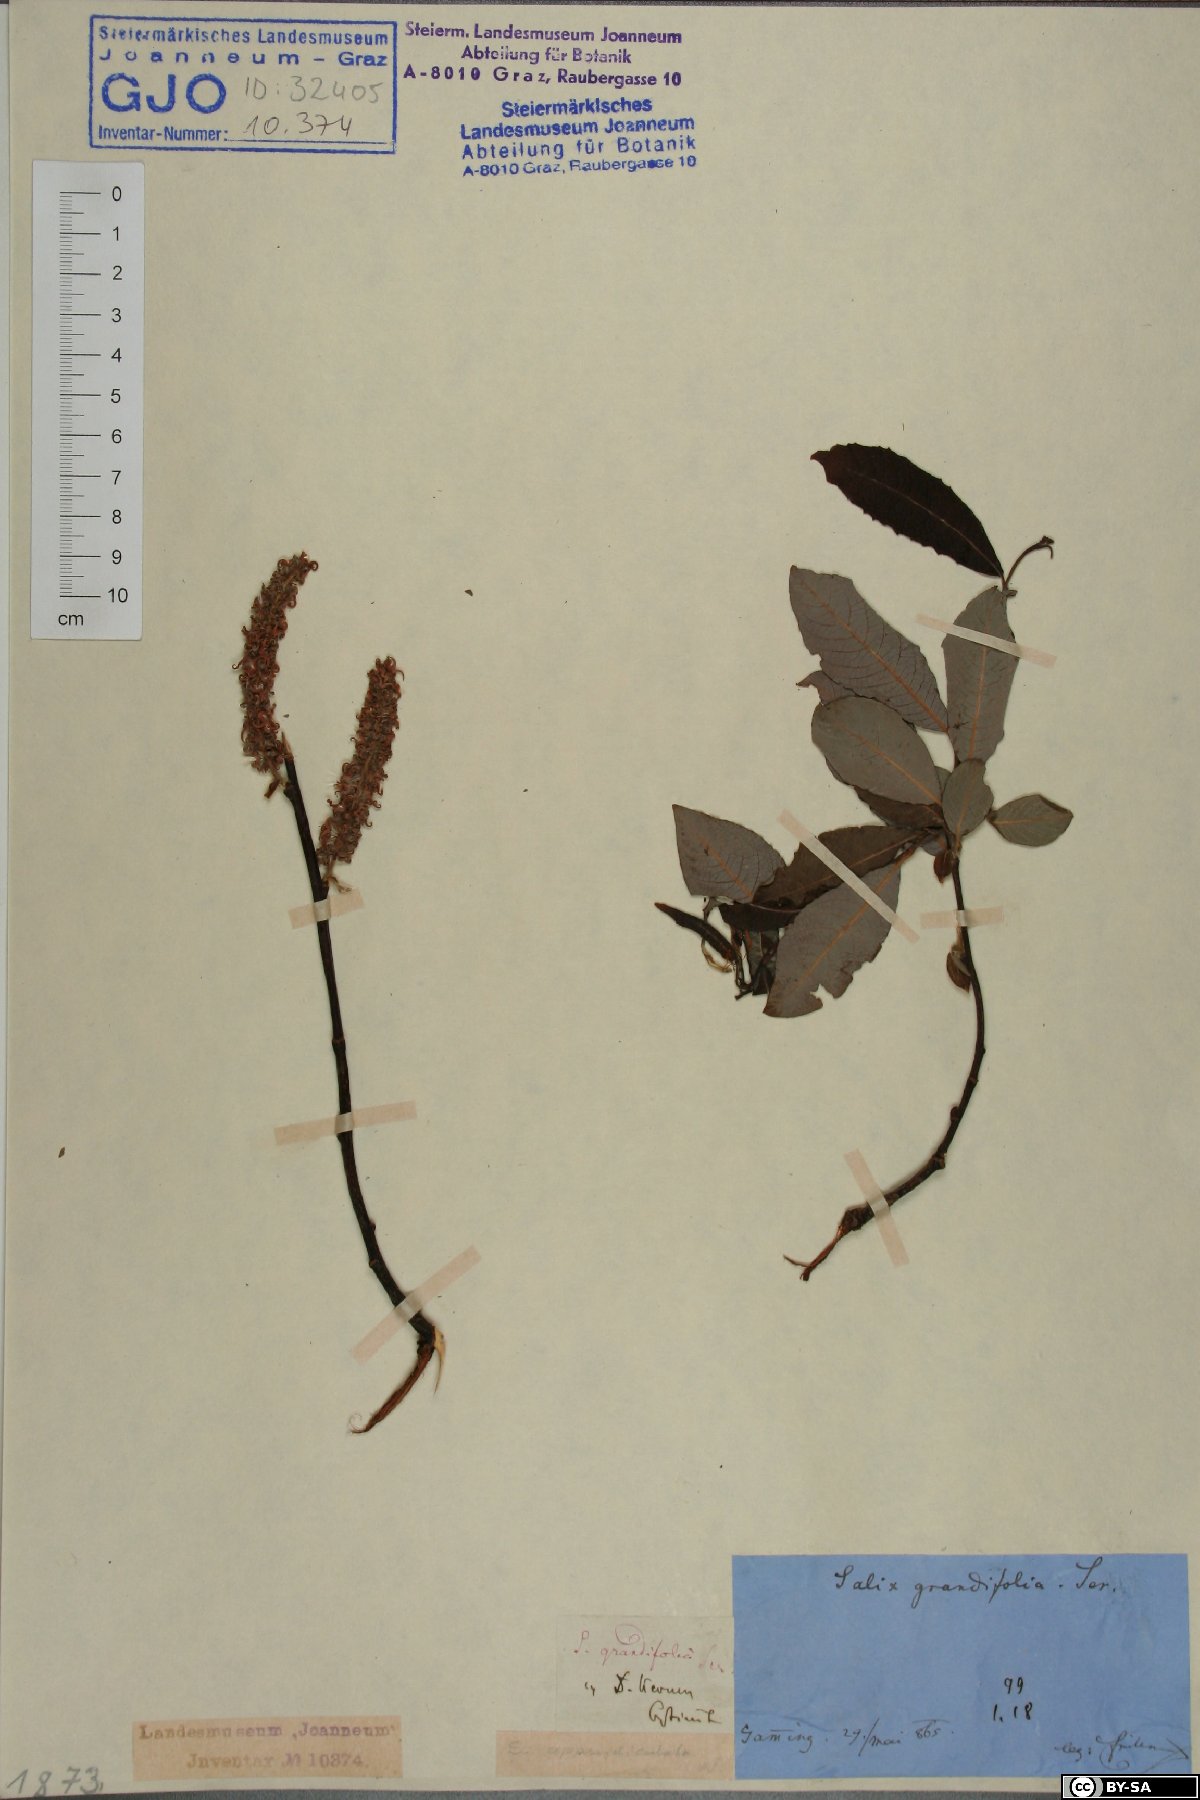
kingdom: Plantae
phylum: Tracheophyta
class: Magnoliopsida
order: Malpighiales
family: Salicaceae
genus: Salix
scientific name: Salix appendiculata
